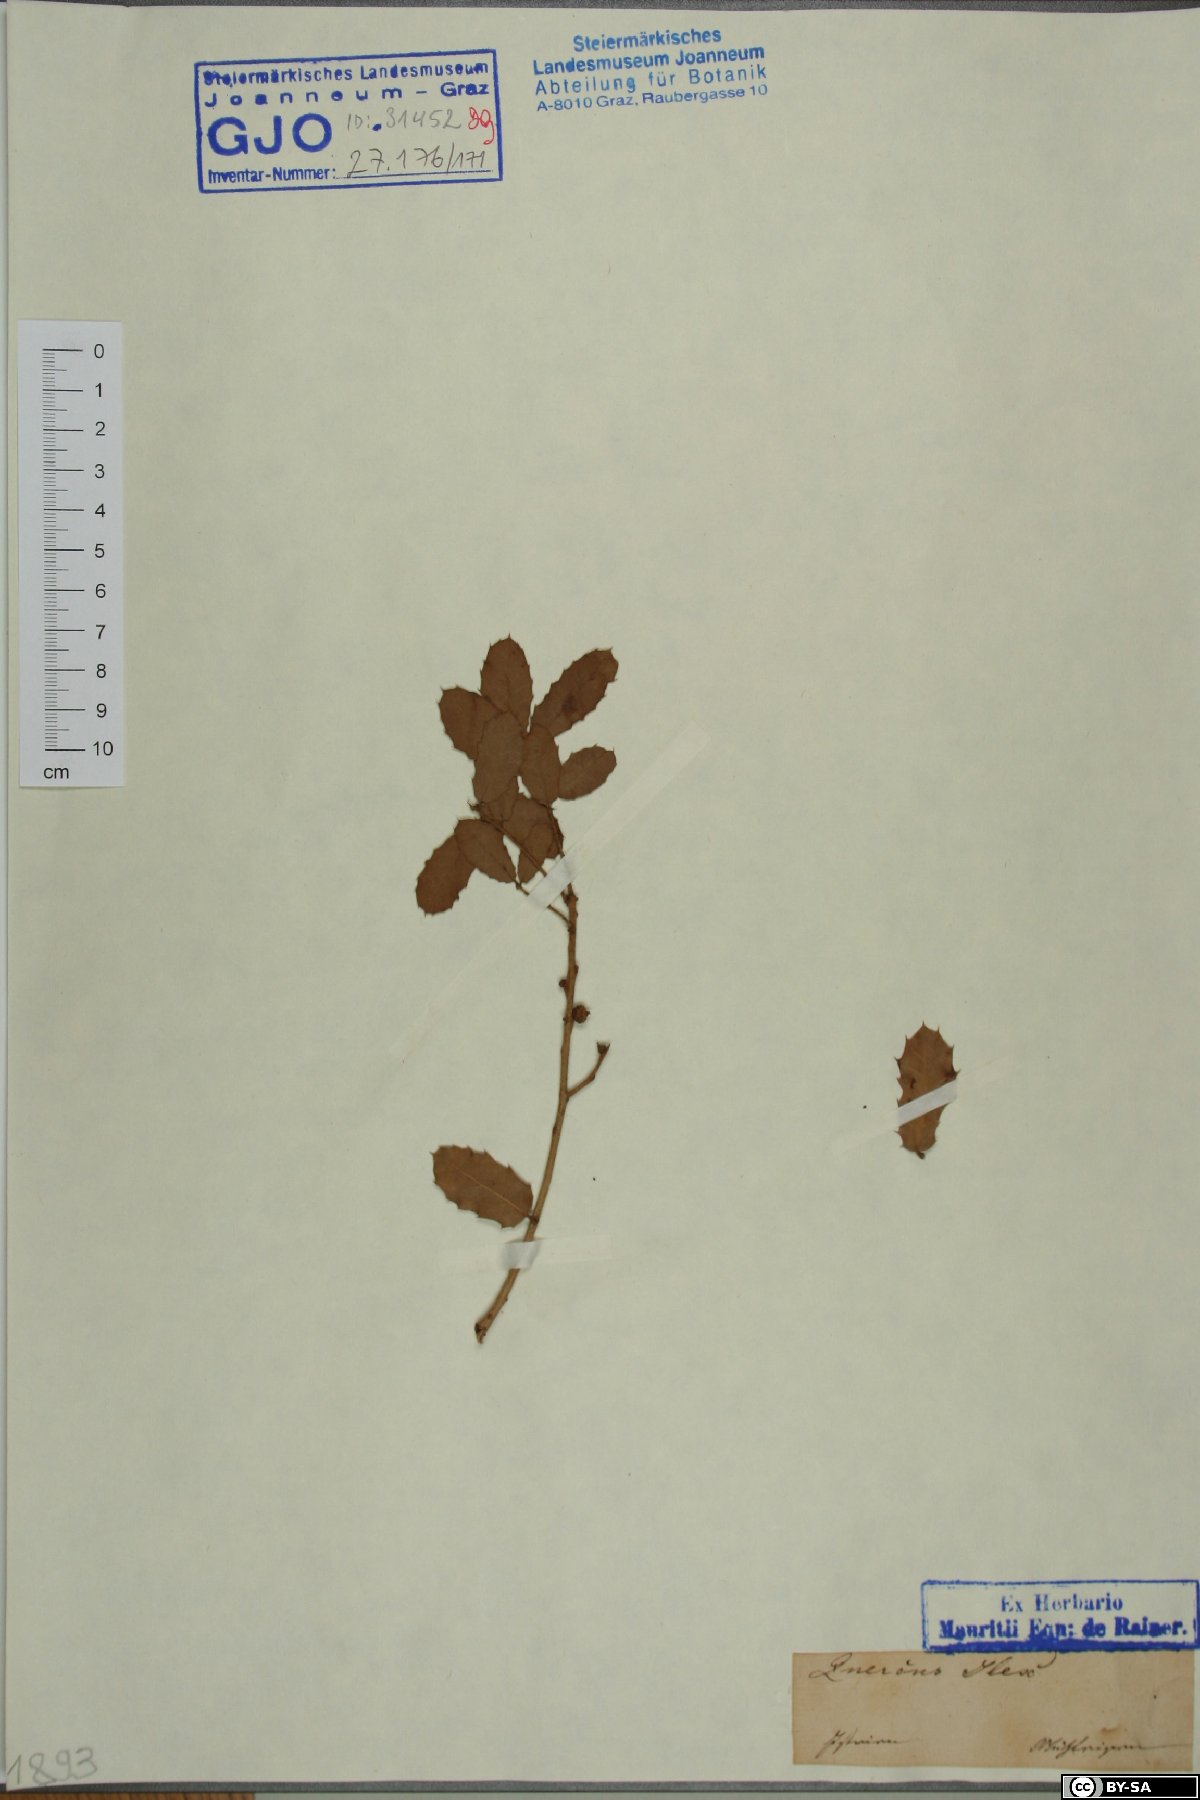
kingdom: Plantae
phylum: Tracheophyta
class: Magnoliopsida
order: Fagales
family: Fagaceae
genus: Quercus
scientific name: Quercus ilex
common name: Evergreen oak
